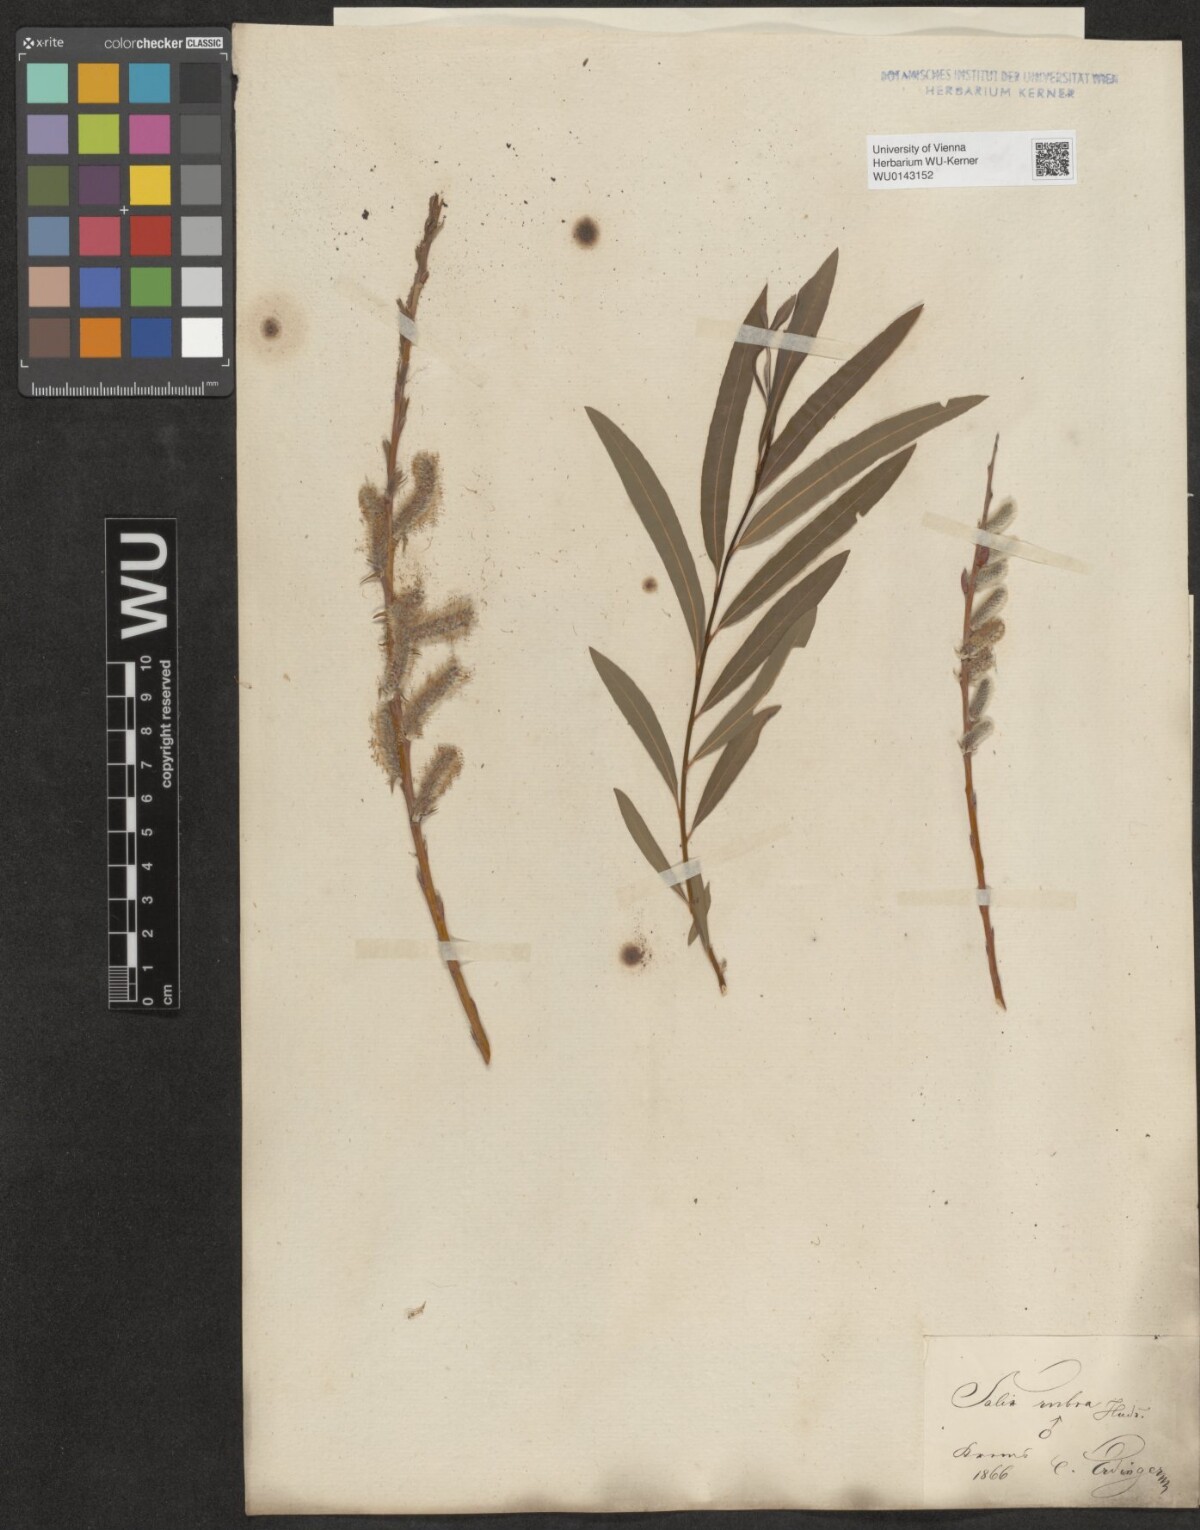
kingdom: Plantae
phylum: Tracheophyta
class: Magnoliopsida
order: Malpighiales
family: Salicaceae
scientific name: Salicaceae
